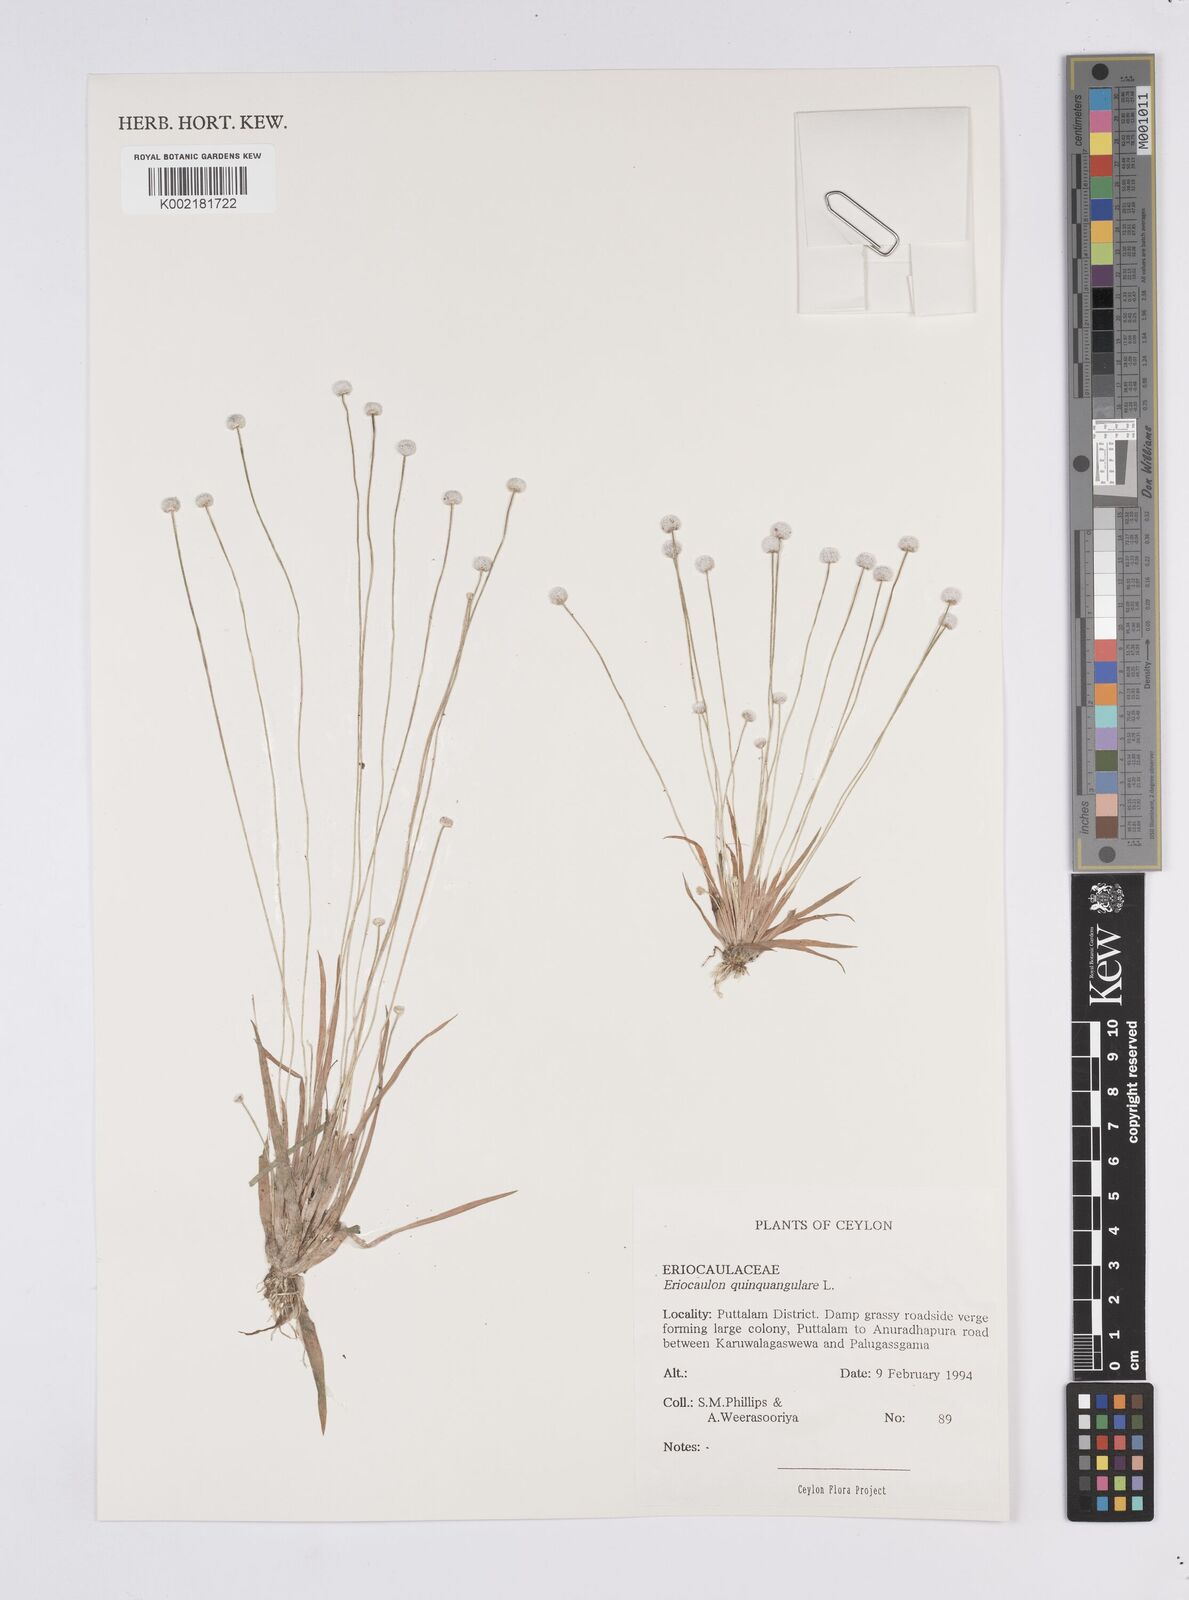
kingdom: Plantae
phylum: Tracheophyta
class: Liliopsida
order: Poales
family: Eriocaulaceae
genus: Eriocaulon
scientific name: Eriocaulon quinquangulare
